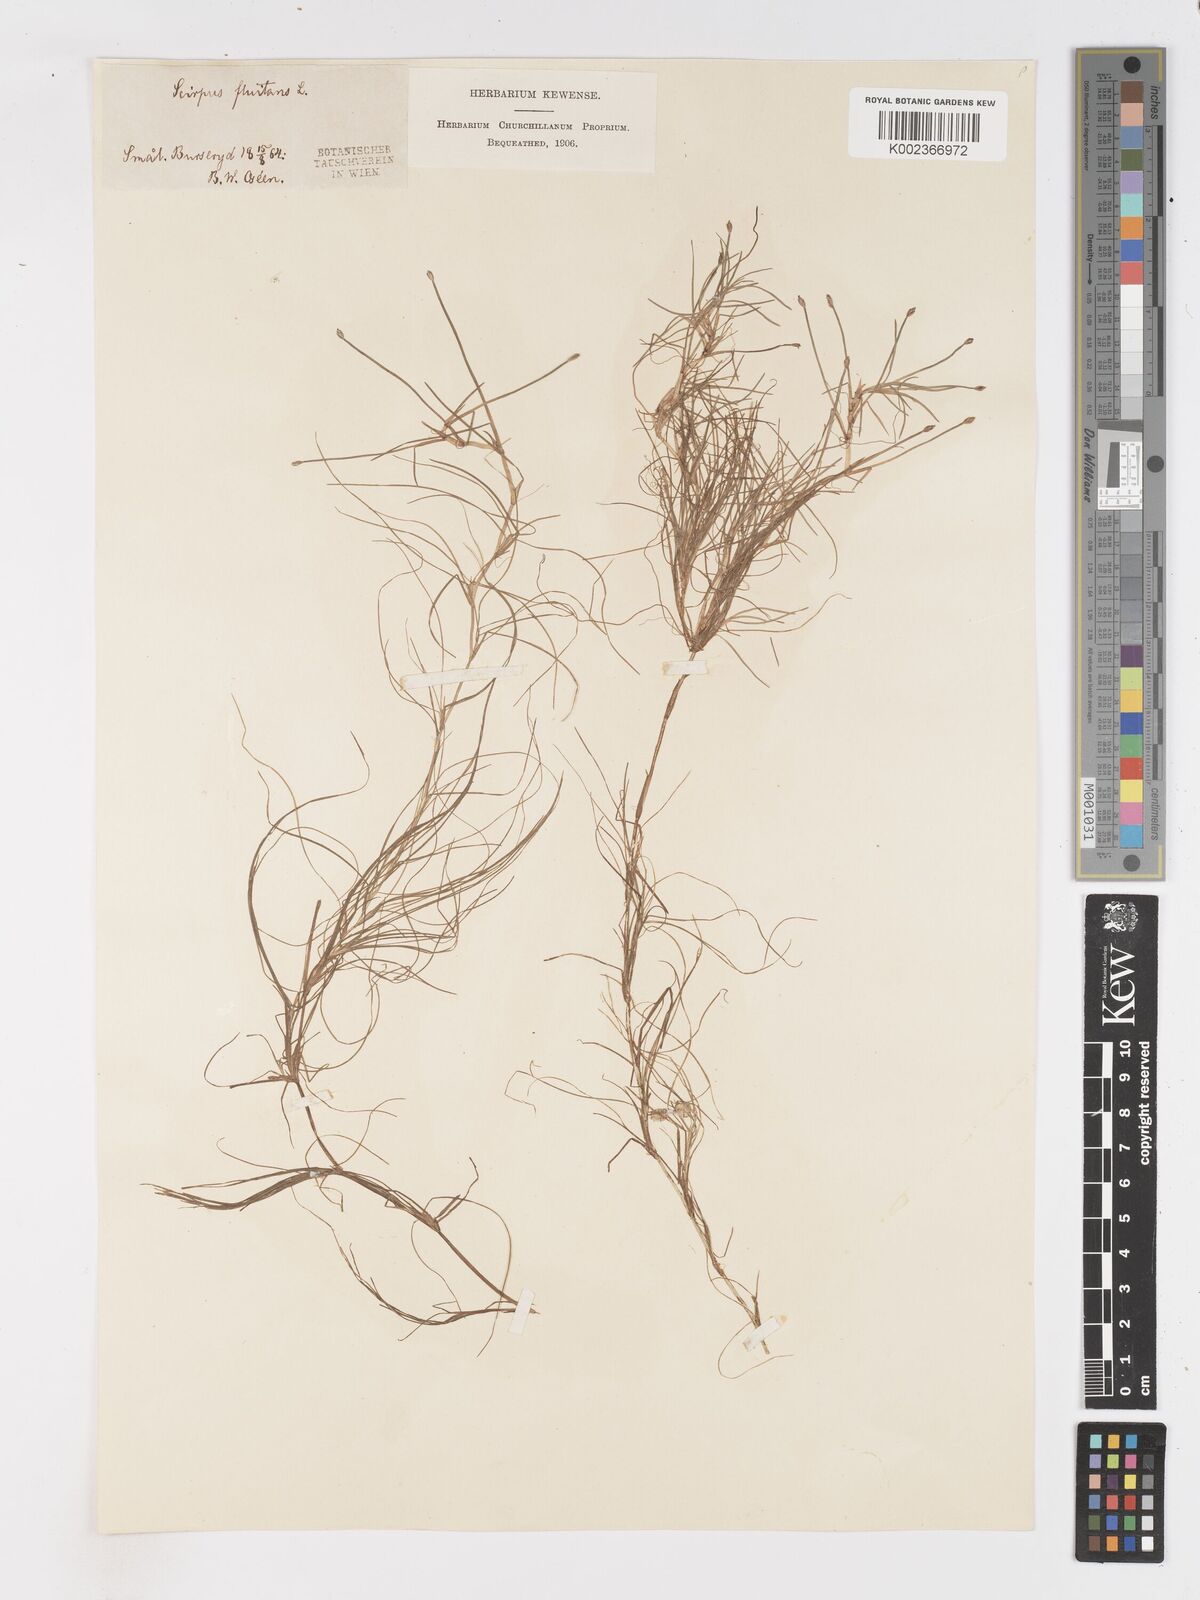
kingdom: Plantae
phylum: Tracheophyta
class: Liliopsida
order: Poales
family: Cyperaceae
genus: Isolepis
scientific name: Isolepis fluitans
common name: Floating club-rush
